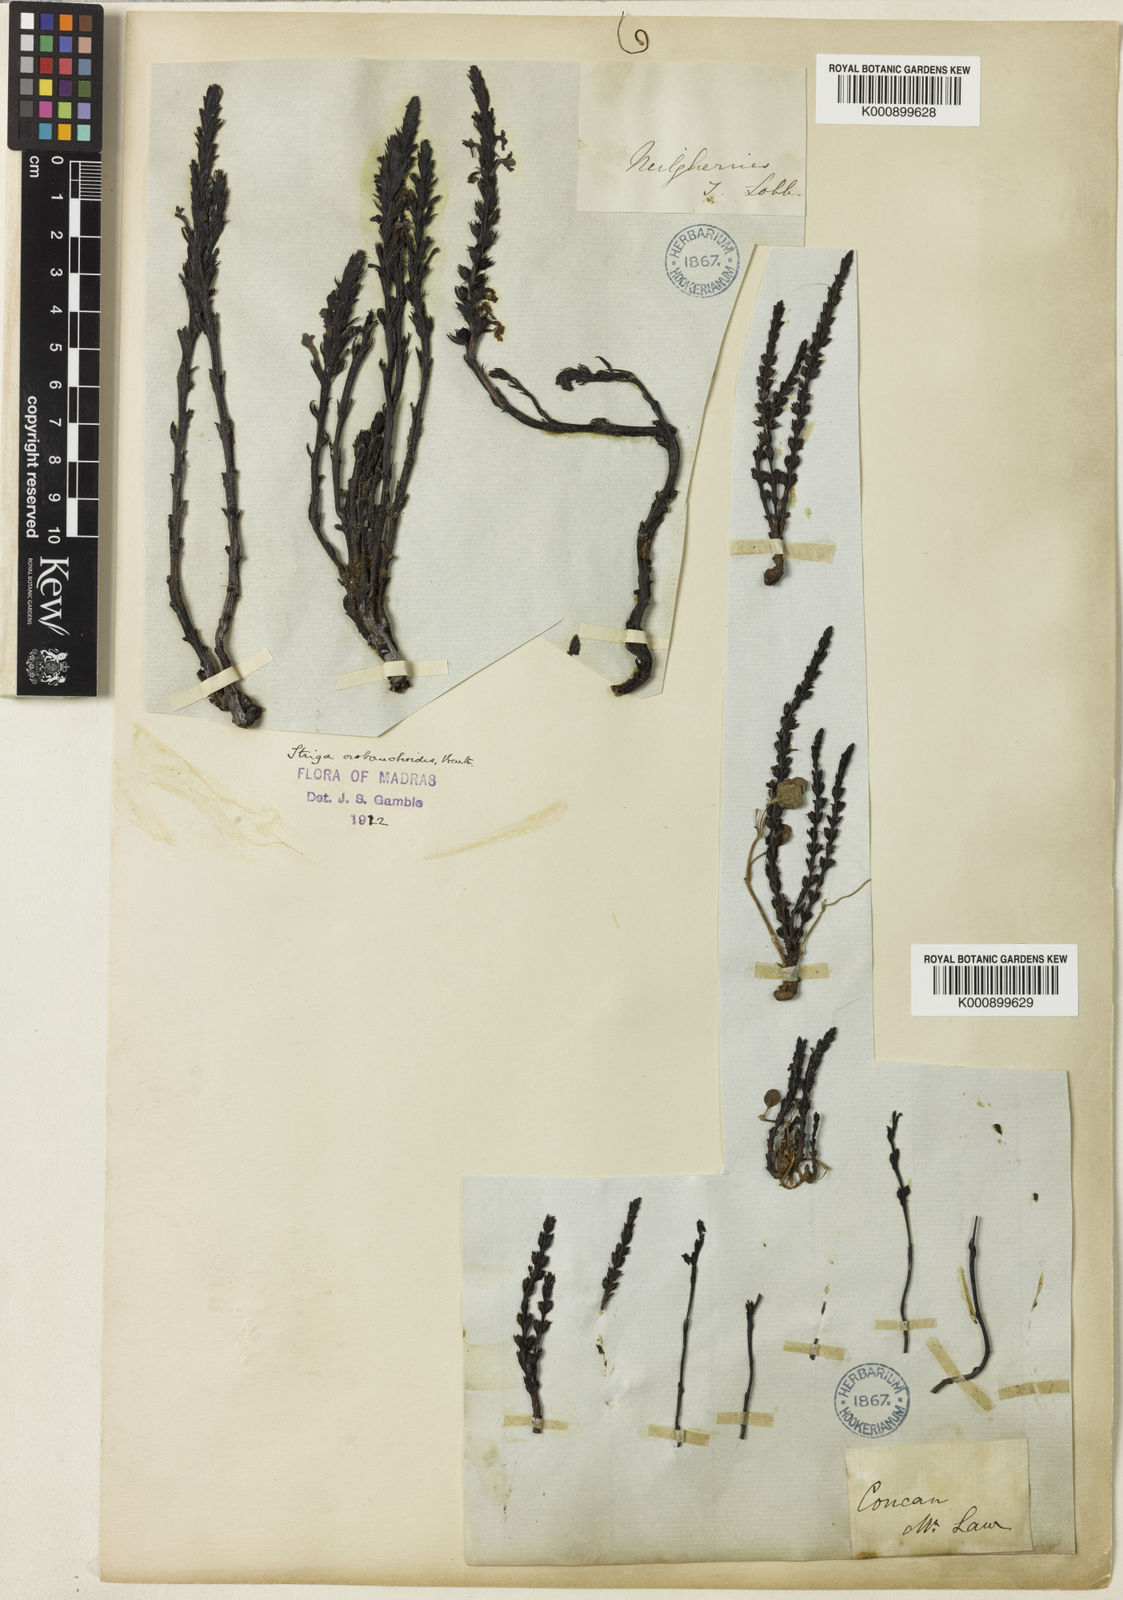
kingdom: Plantae
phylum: Tracheophyta
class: Magnoliopsida
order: Lamiales
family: Orobanchaceae
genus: Striga
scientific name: Striga barthlottii
